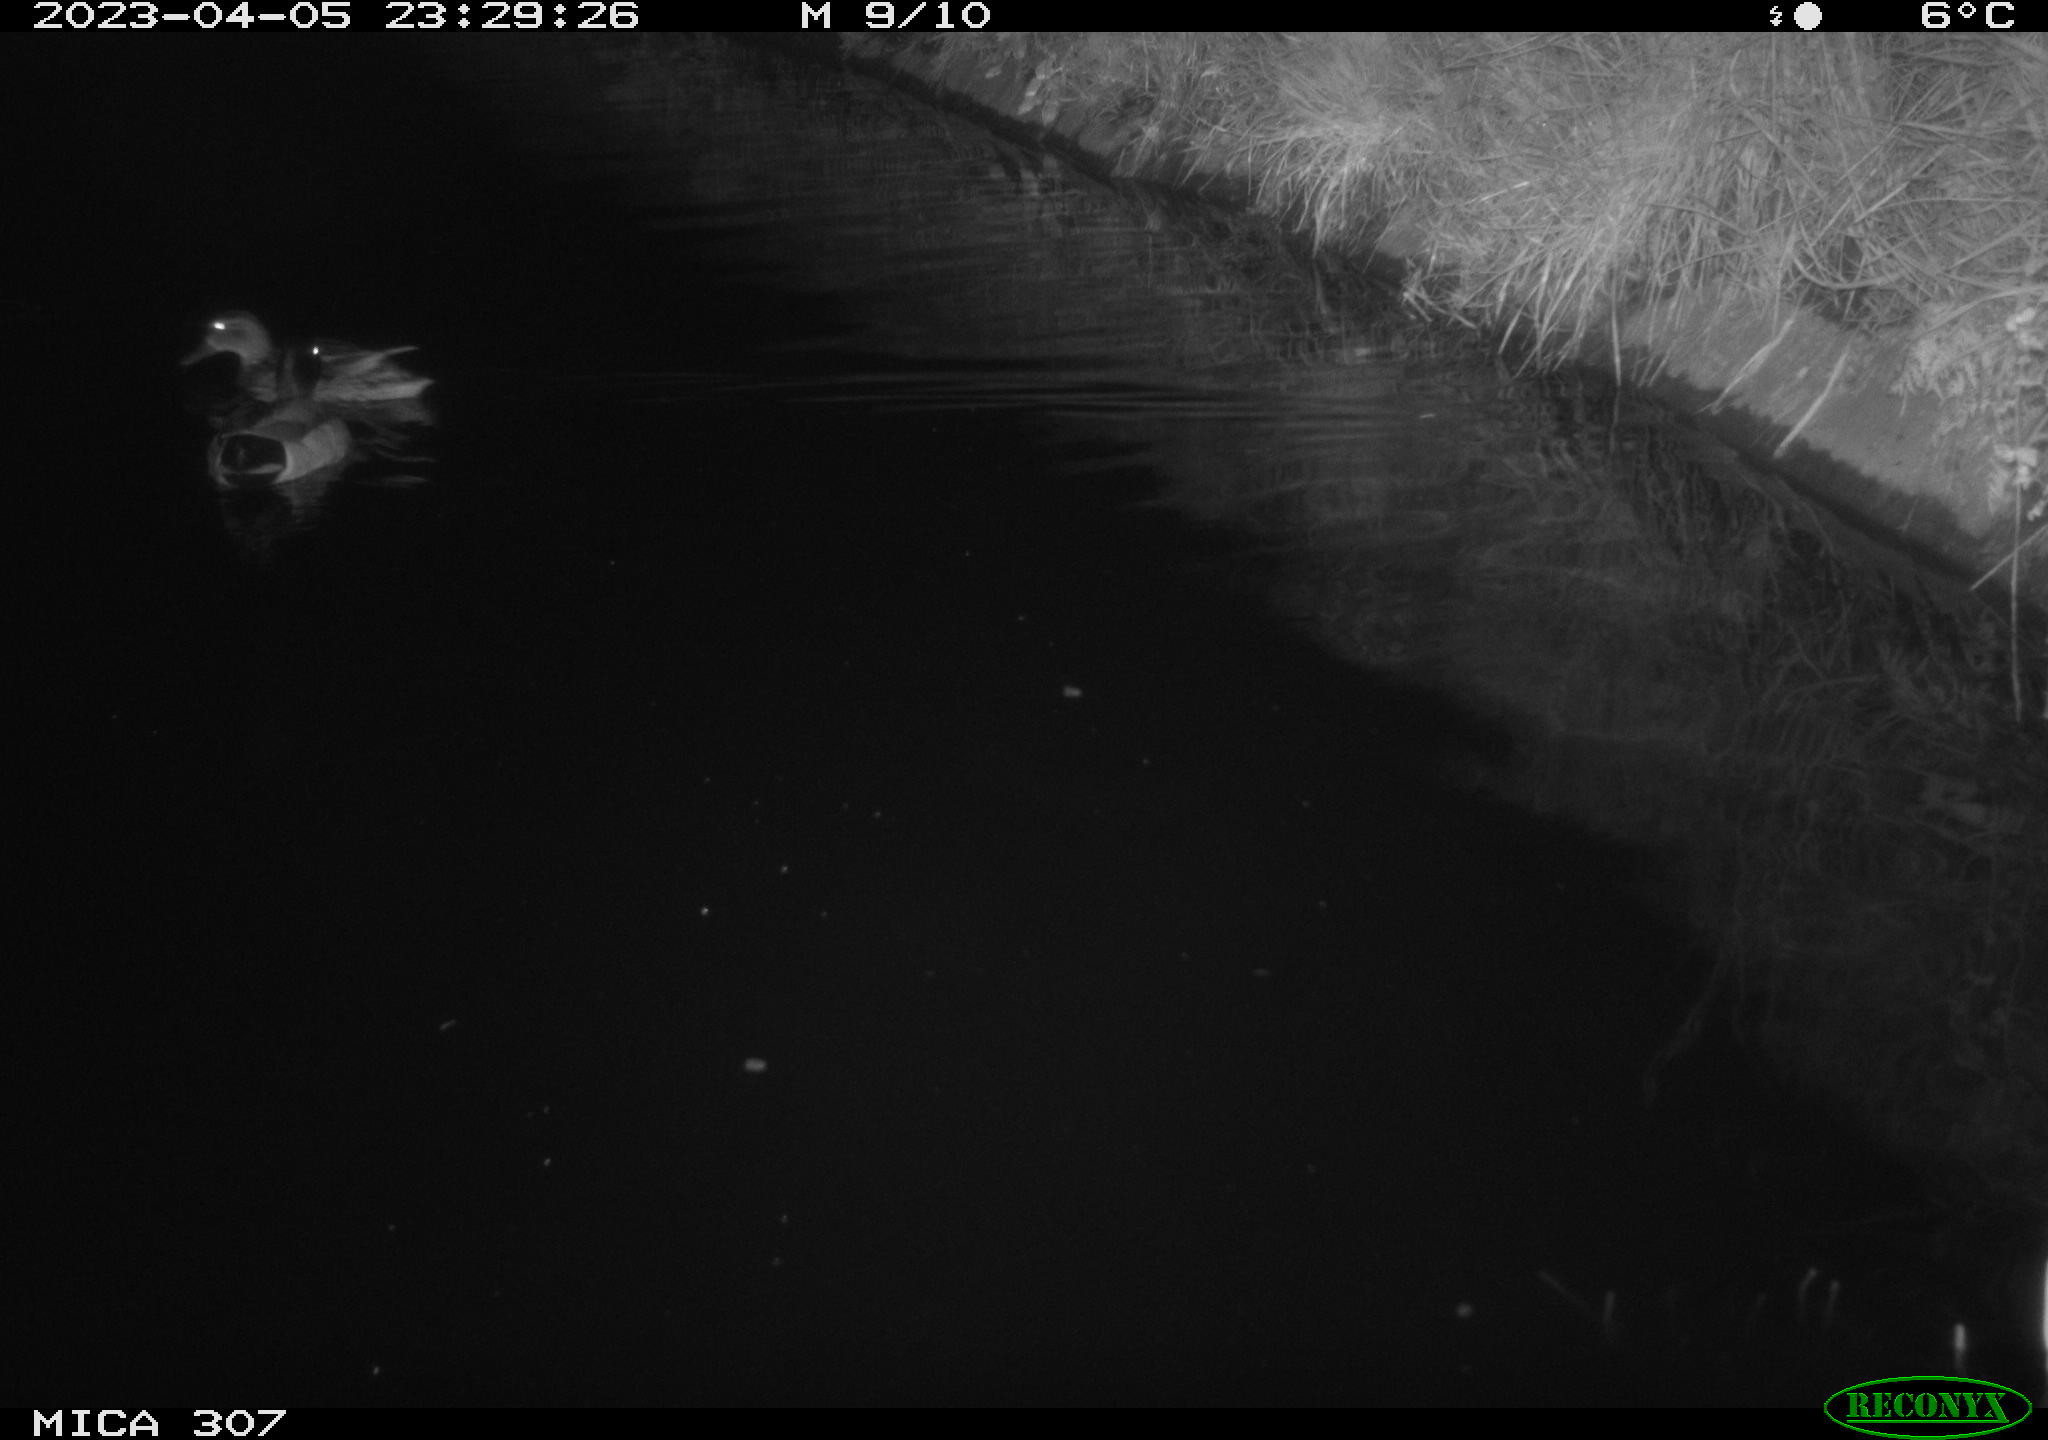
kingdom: Animalia
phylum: Chordata
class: Aves
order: Anseriformes
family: Anatidae
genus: Anas
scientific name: Anas
